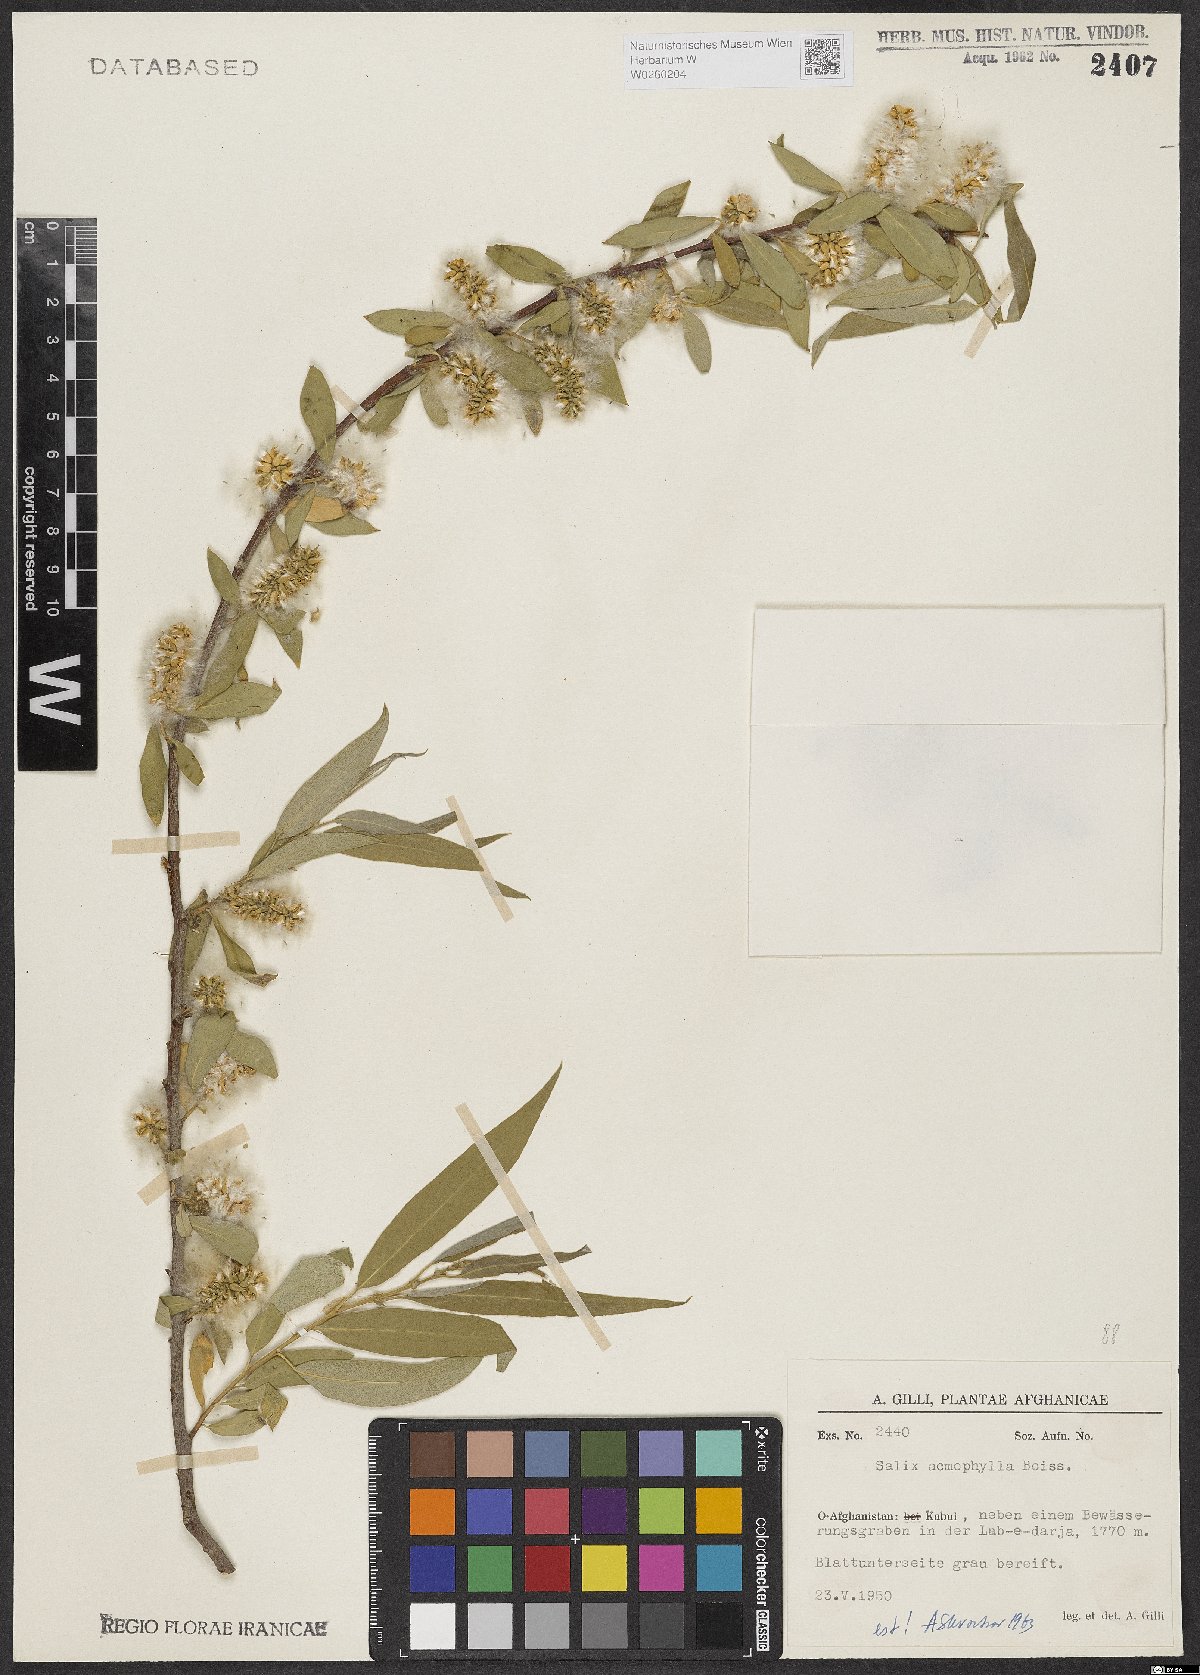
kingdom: Plantae
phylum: Tracheophyta
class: Magnoliopsida
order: Malpighiales
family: Salicaceae
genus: Salix
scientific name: Salix acmophylla
